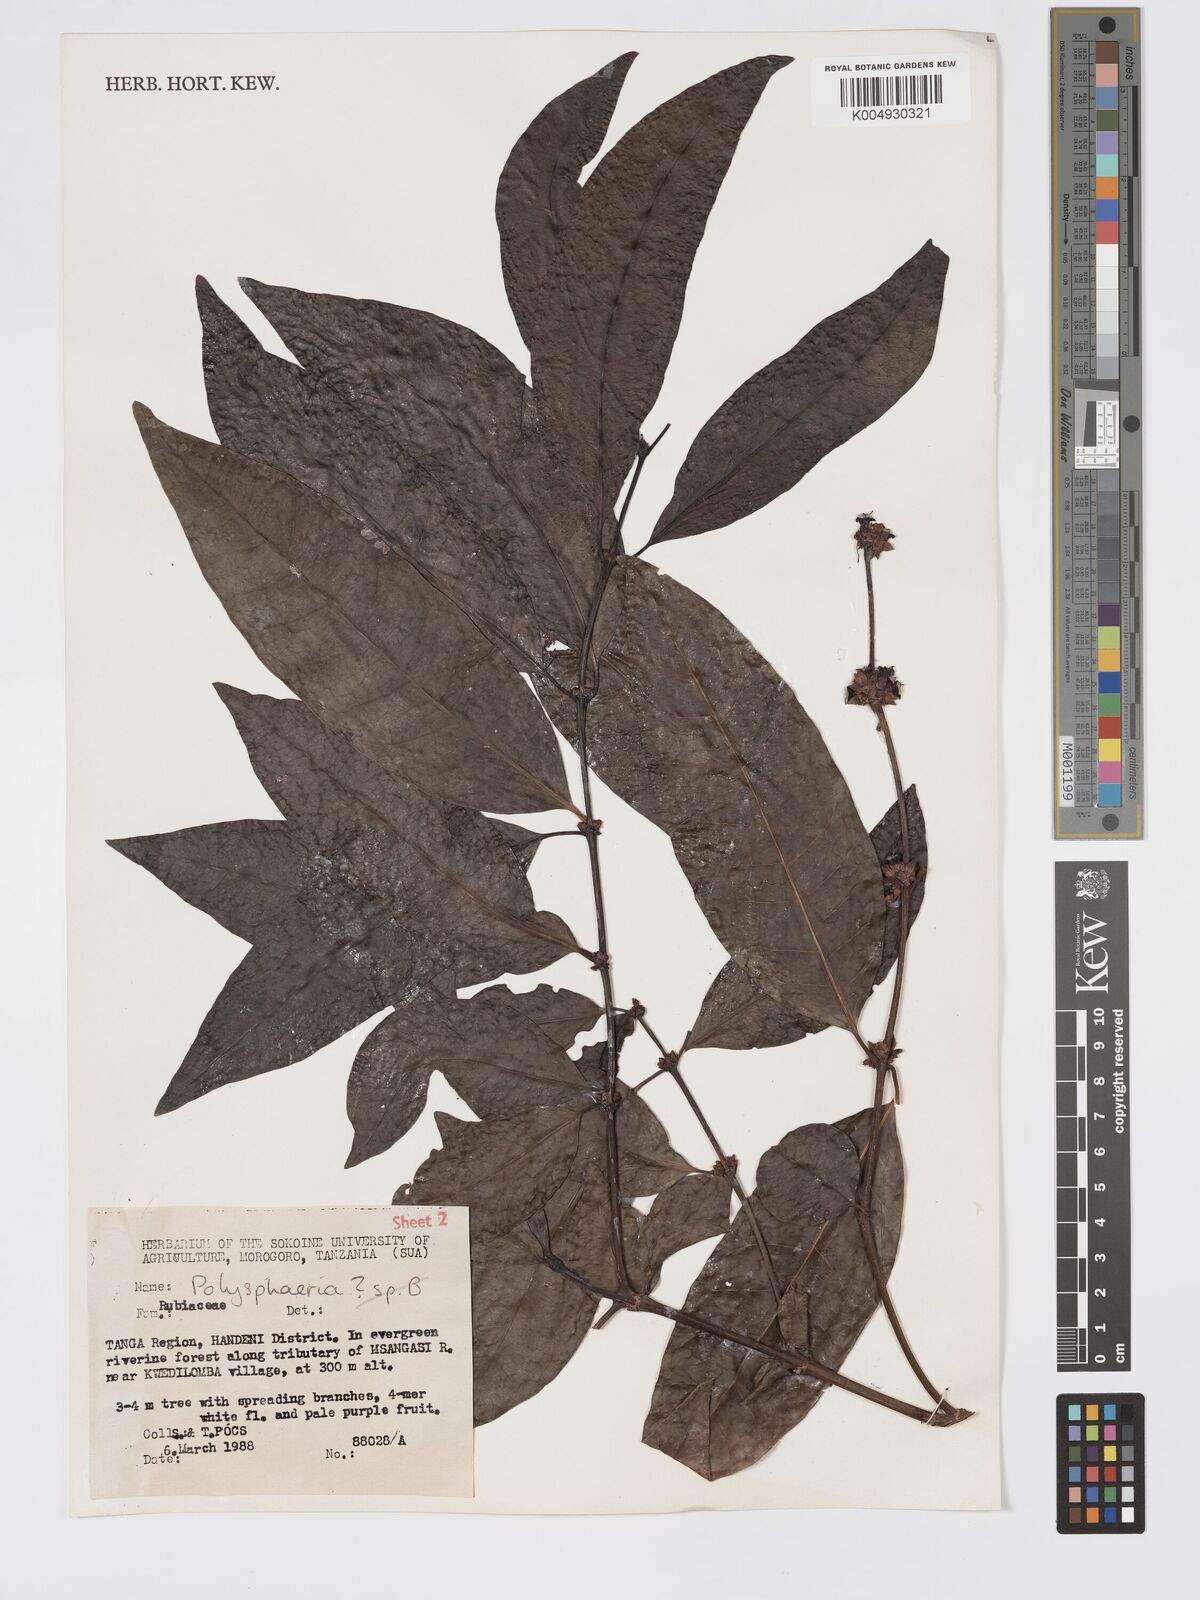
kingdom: Plantae
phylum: Tracheophyta
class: Magnoliopsida
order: Gentianales
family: Rubiaceae
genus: Polysphaeria
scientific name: Polysphaeria
